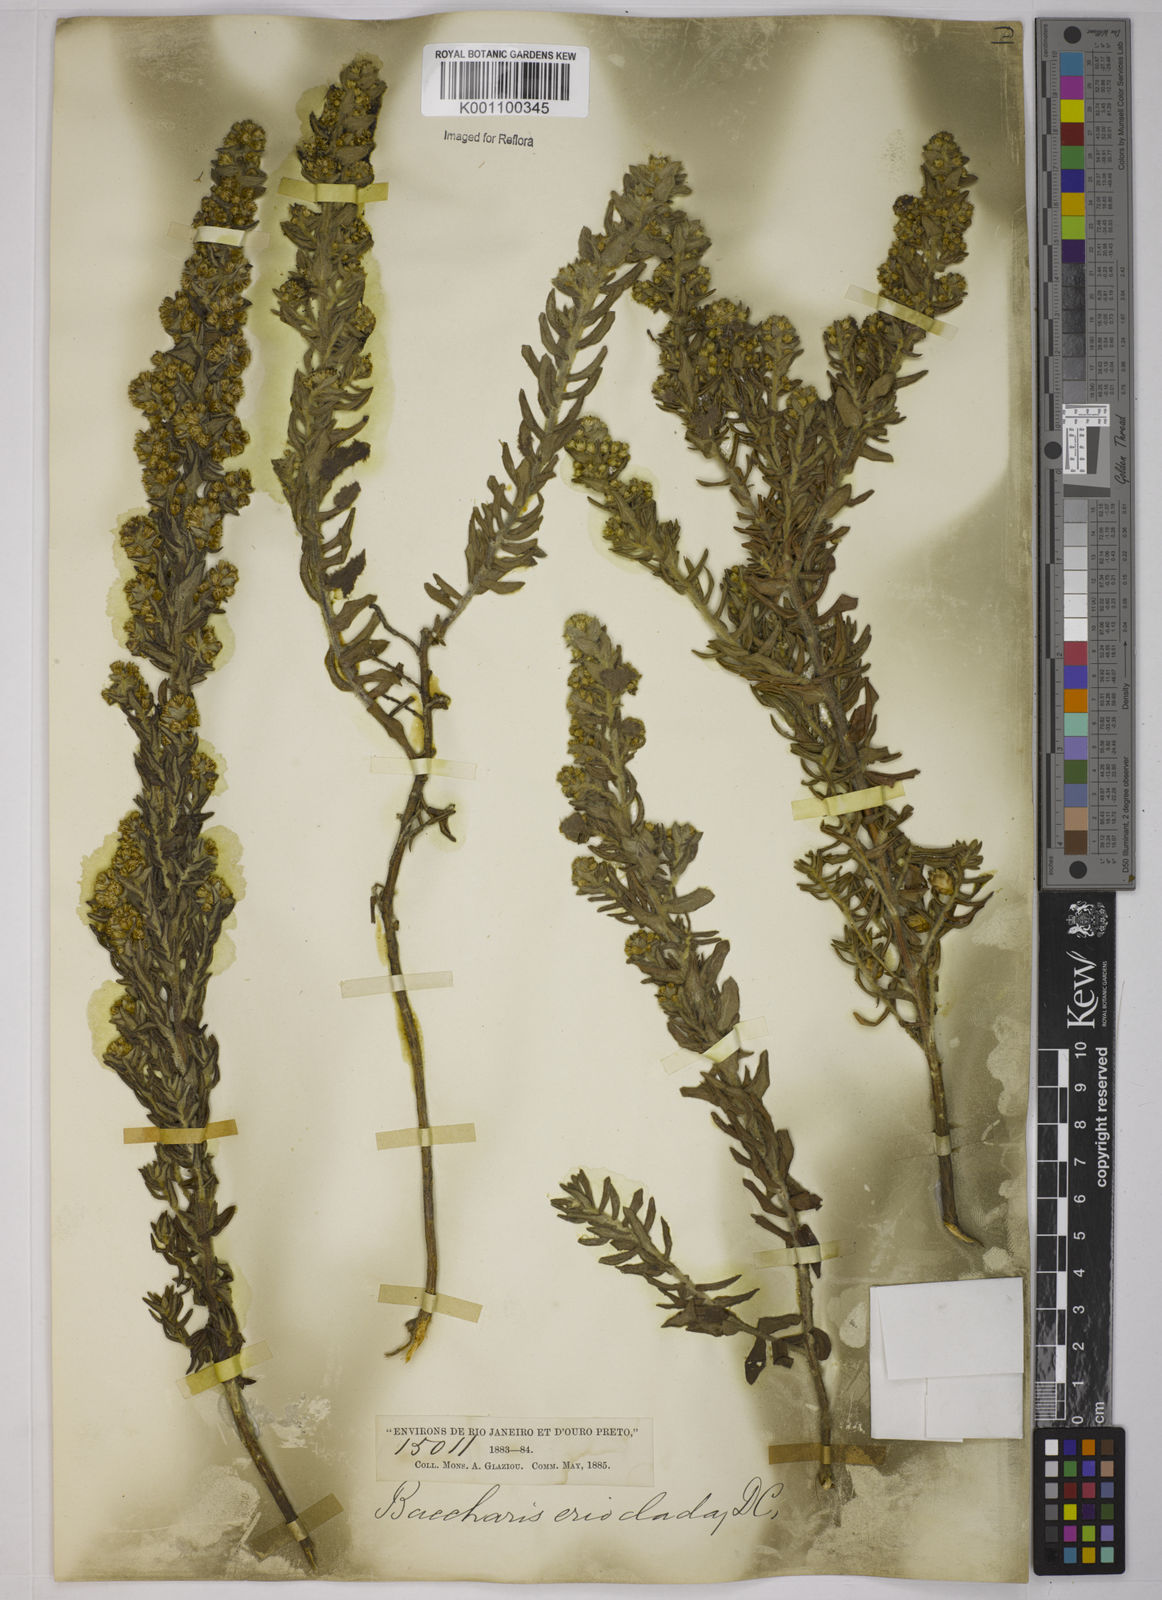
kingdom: Plantae
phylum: Tracheophyta
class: Magnoliopsida
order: Asterales
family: Asteraceae
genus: Baccharis
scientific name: Baccharis erioclada
